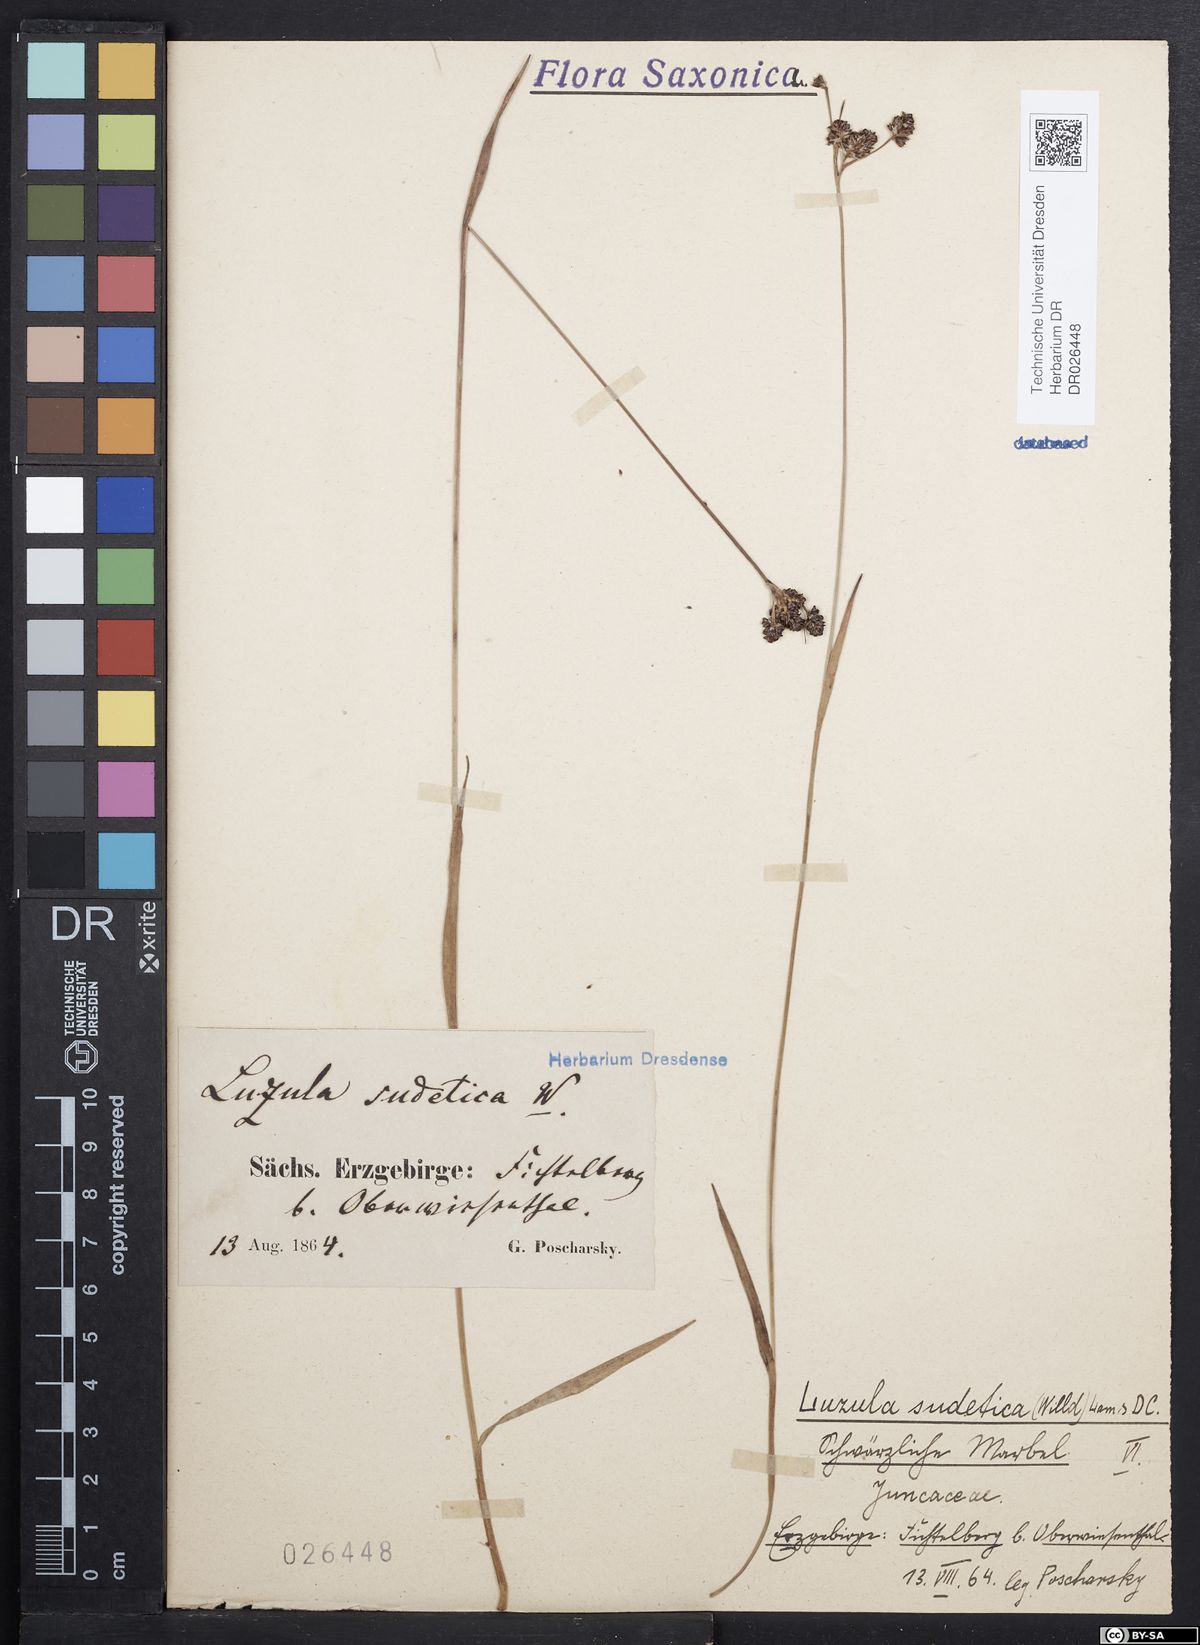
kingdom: Plantae
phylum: Tracheophyta
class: Liliopsida
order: Poales
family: Juncaceae
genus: Luzula
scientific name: Luzula sudetica
